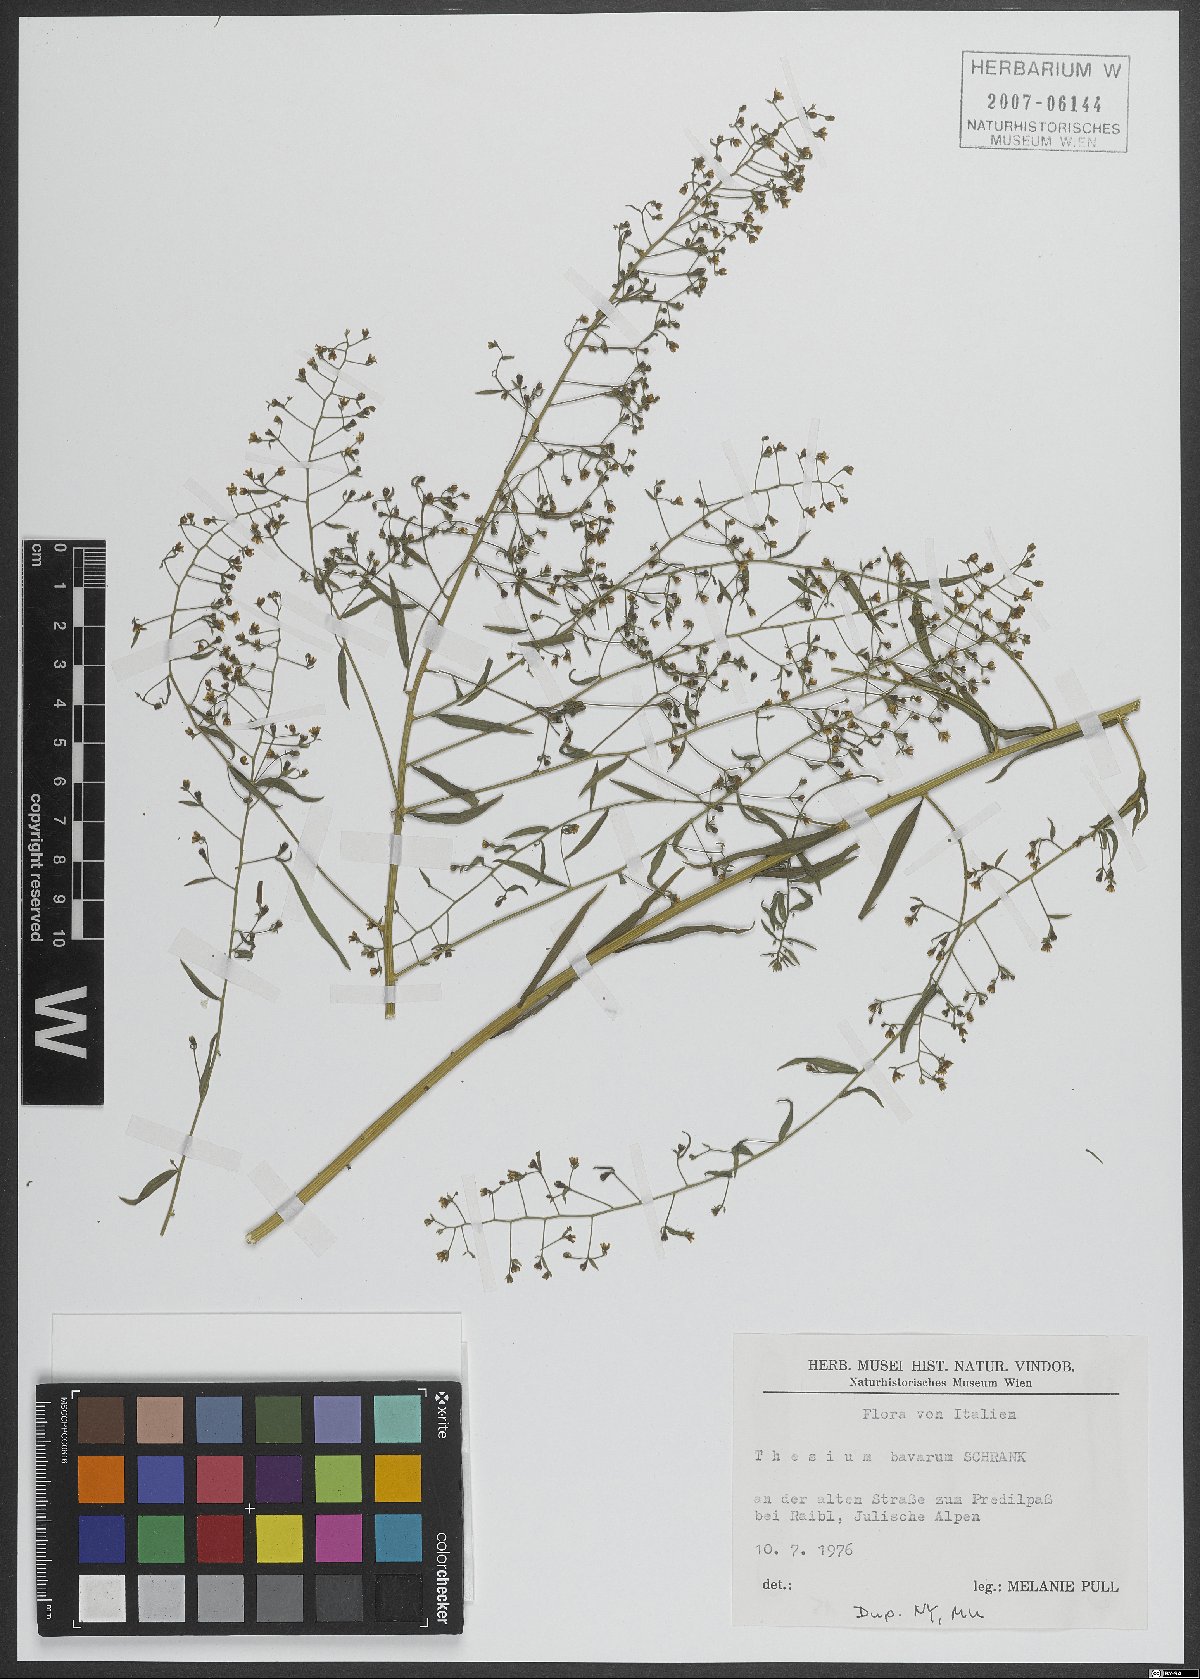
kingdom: Plantae
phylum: Tracheophyta
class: Magnoliopsida
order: Santalales
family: Thesiaceae
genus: Thesium
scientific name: Thesium bavarum
